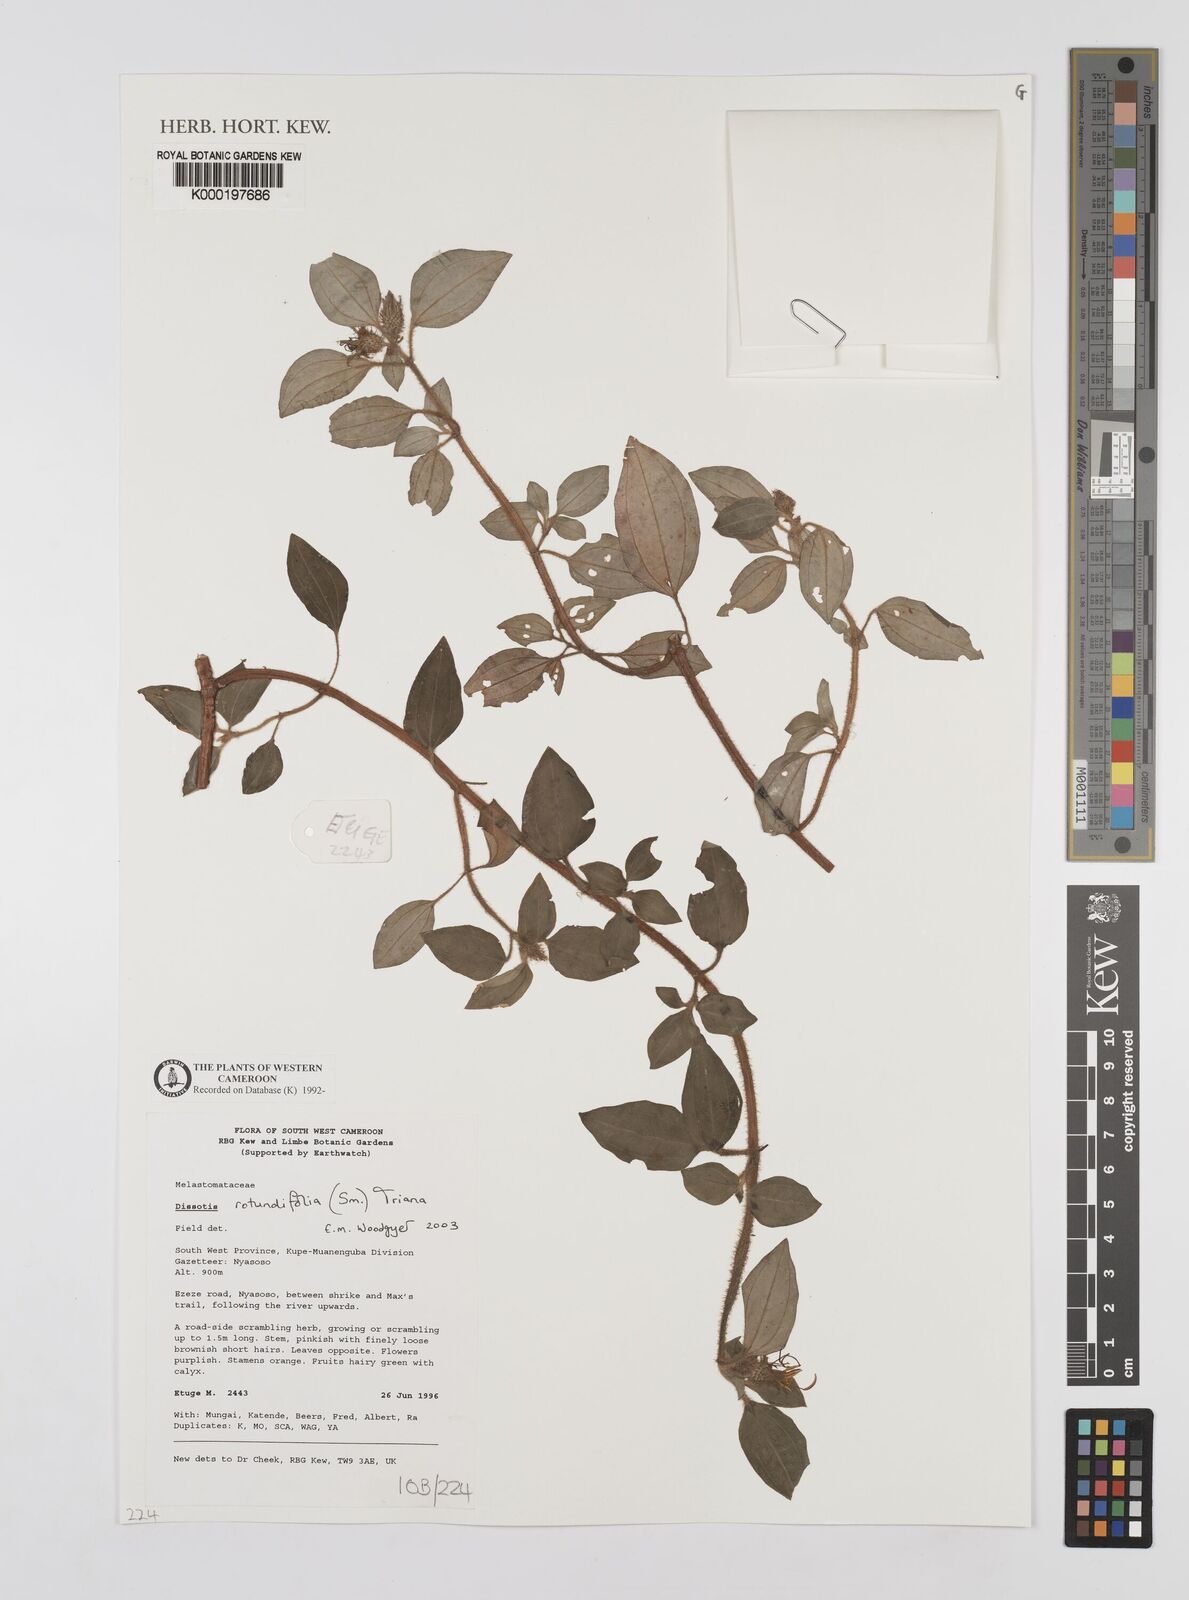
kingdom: Plantae
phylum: Tracheophyta
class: Magnoliopsida
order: Myrtales
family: Melastomataceae
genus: Heterotis
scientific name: Heterotis rotundifolia
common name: Pinklady
